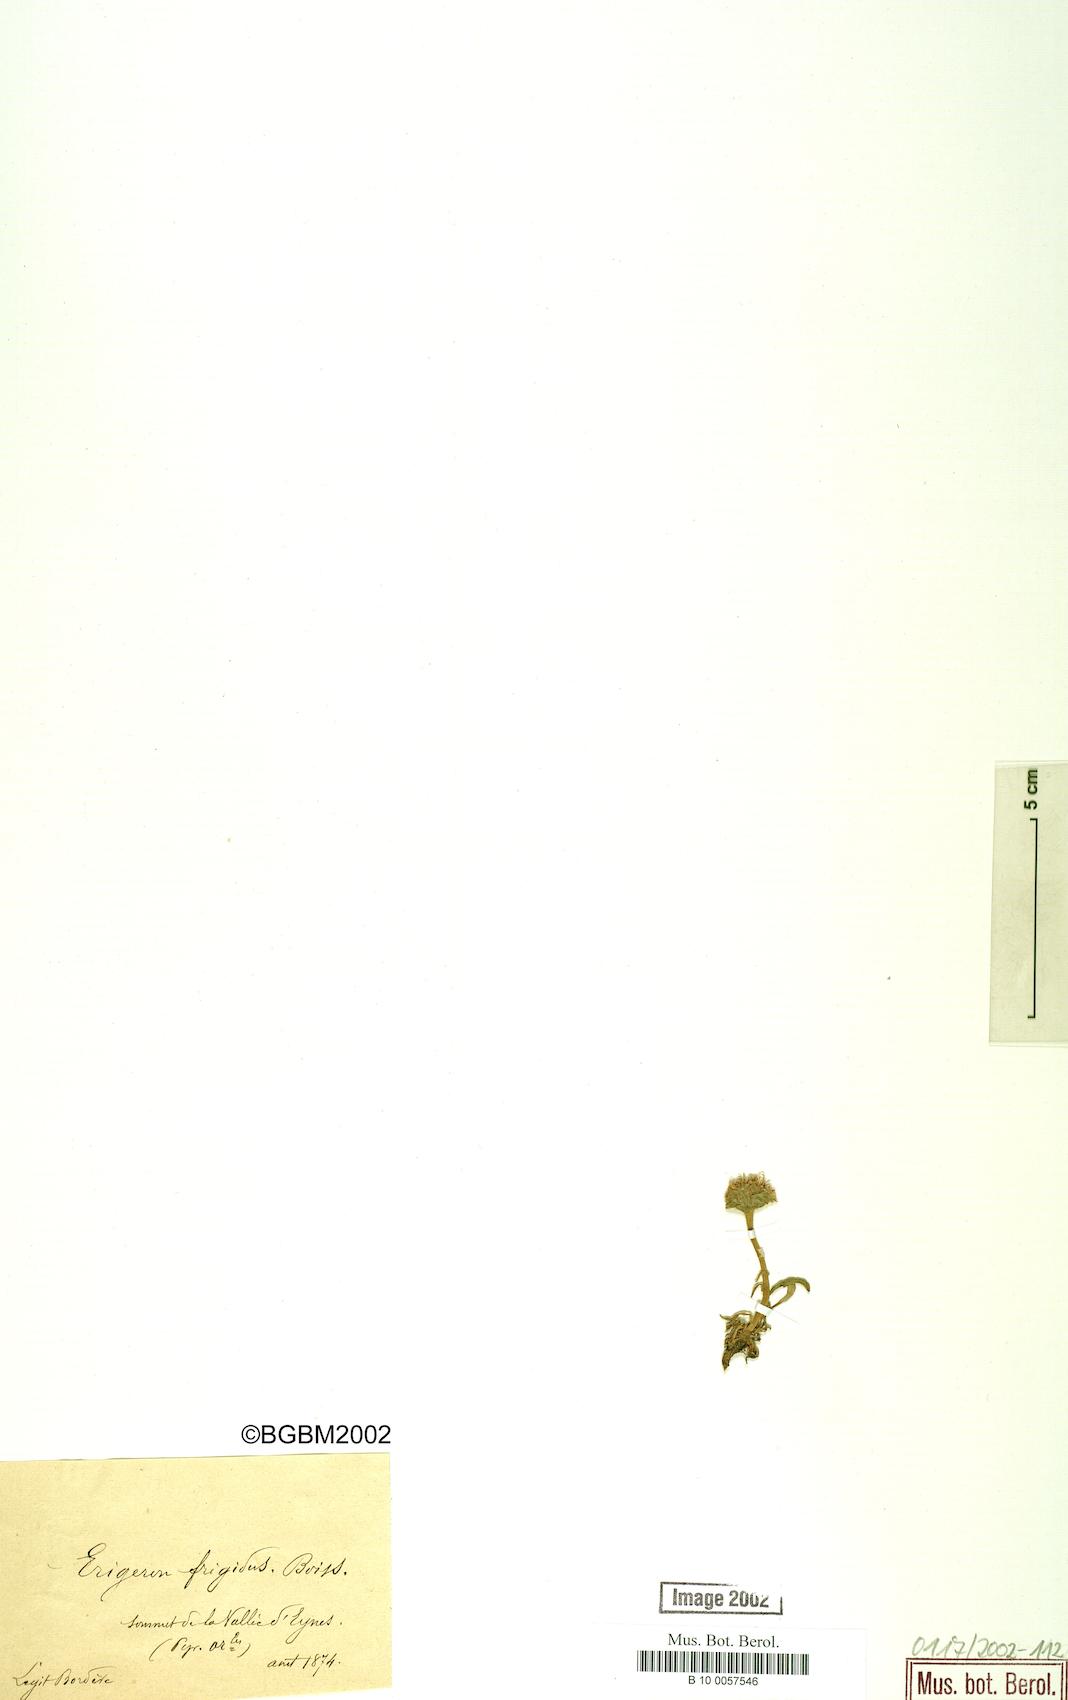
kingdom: Plantae
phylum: Tracheophyta
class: Magnoliopsida
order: Asterales
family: Asteraceae
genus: Erigeron
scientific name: Erigeron aragonensis
